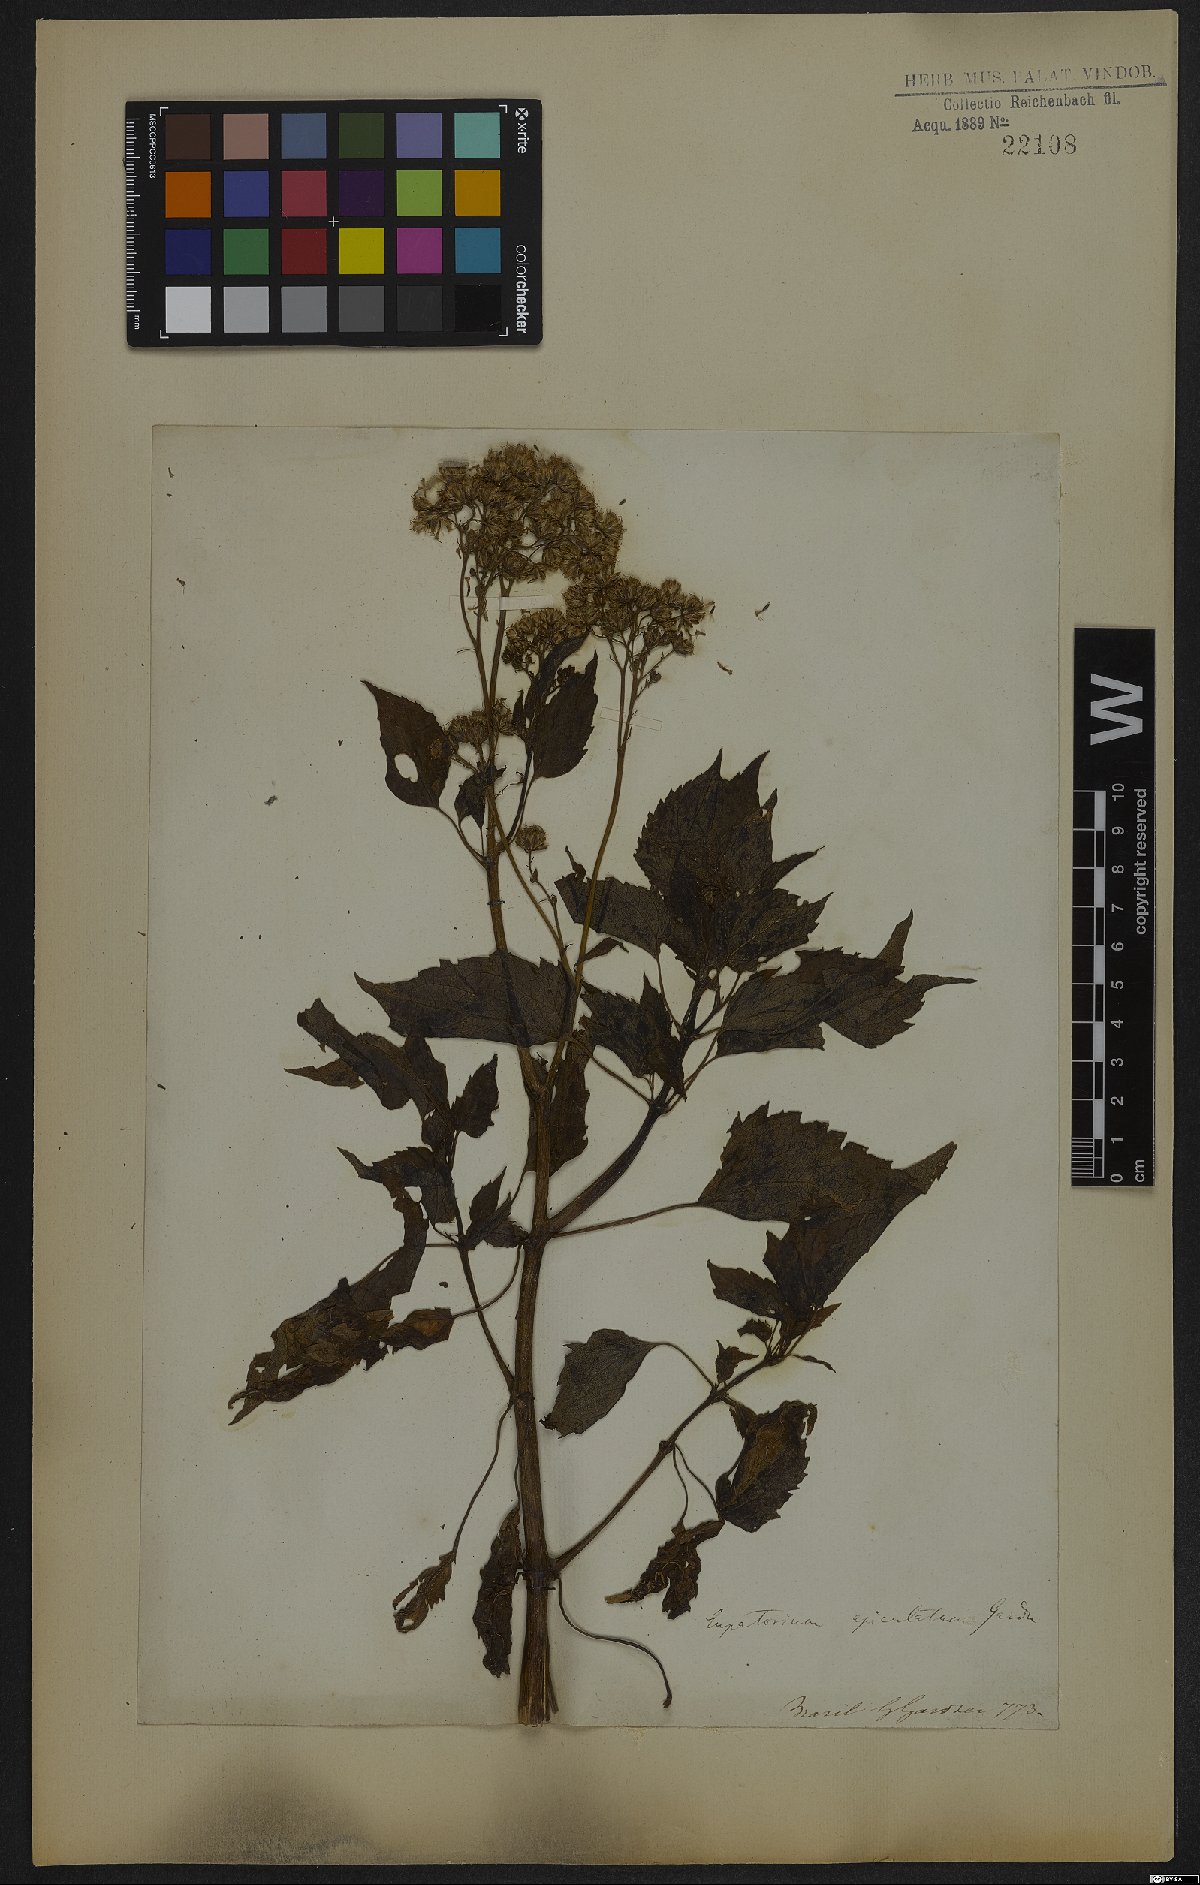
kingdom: Plantae
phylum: Tracheophyta
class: Magnoliopsida
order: Asterales
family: Asteraceae
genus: Barrosoa
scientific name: Barrosoa apiculata
